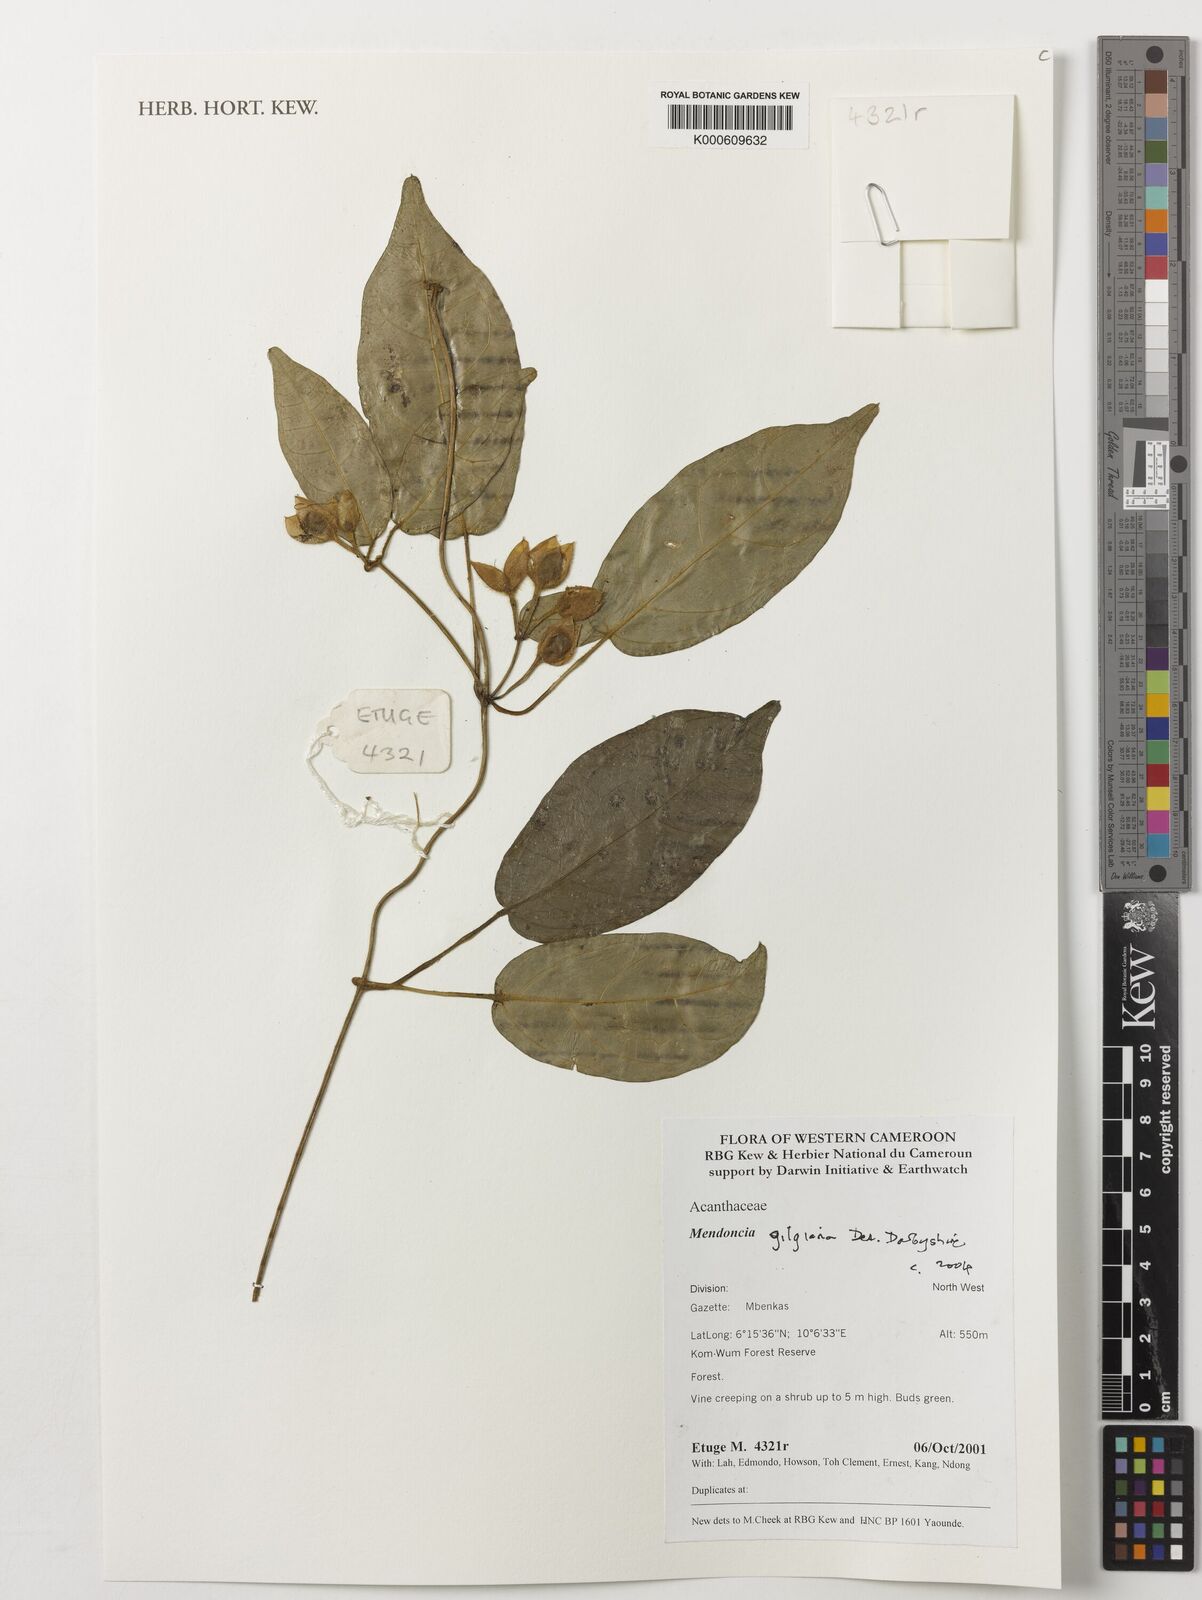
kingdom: Plantae
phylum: Tracheophyta
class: Magnoliopsida
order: Lamiales
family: Acanthaceae
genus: Mendoncia
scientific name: Mendoncia gilgiana
